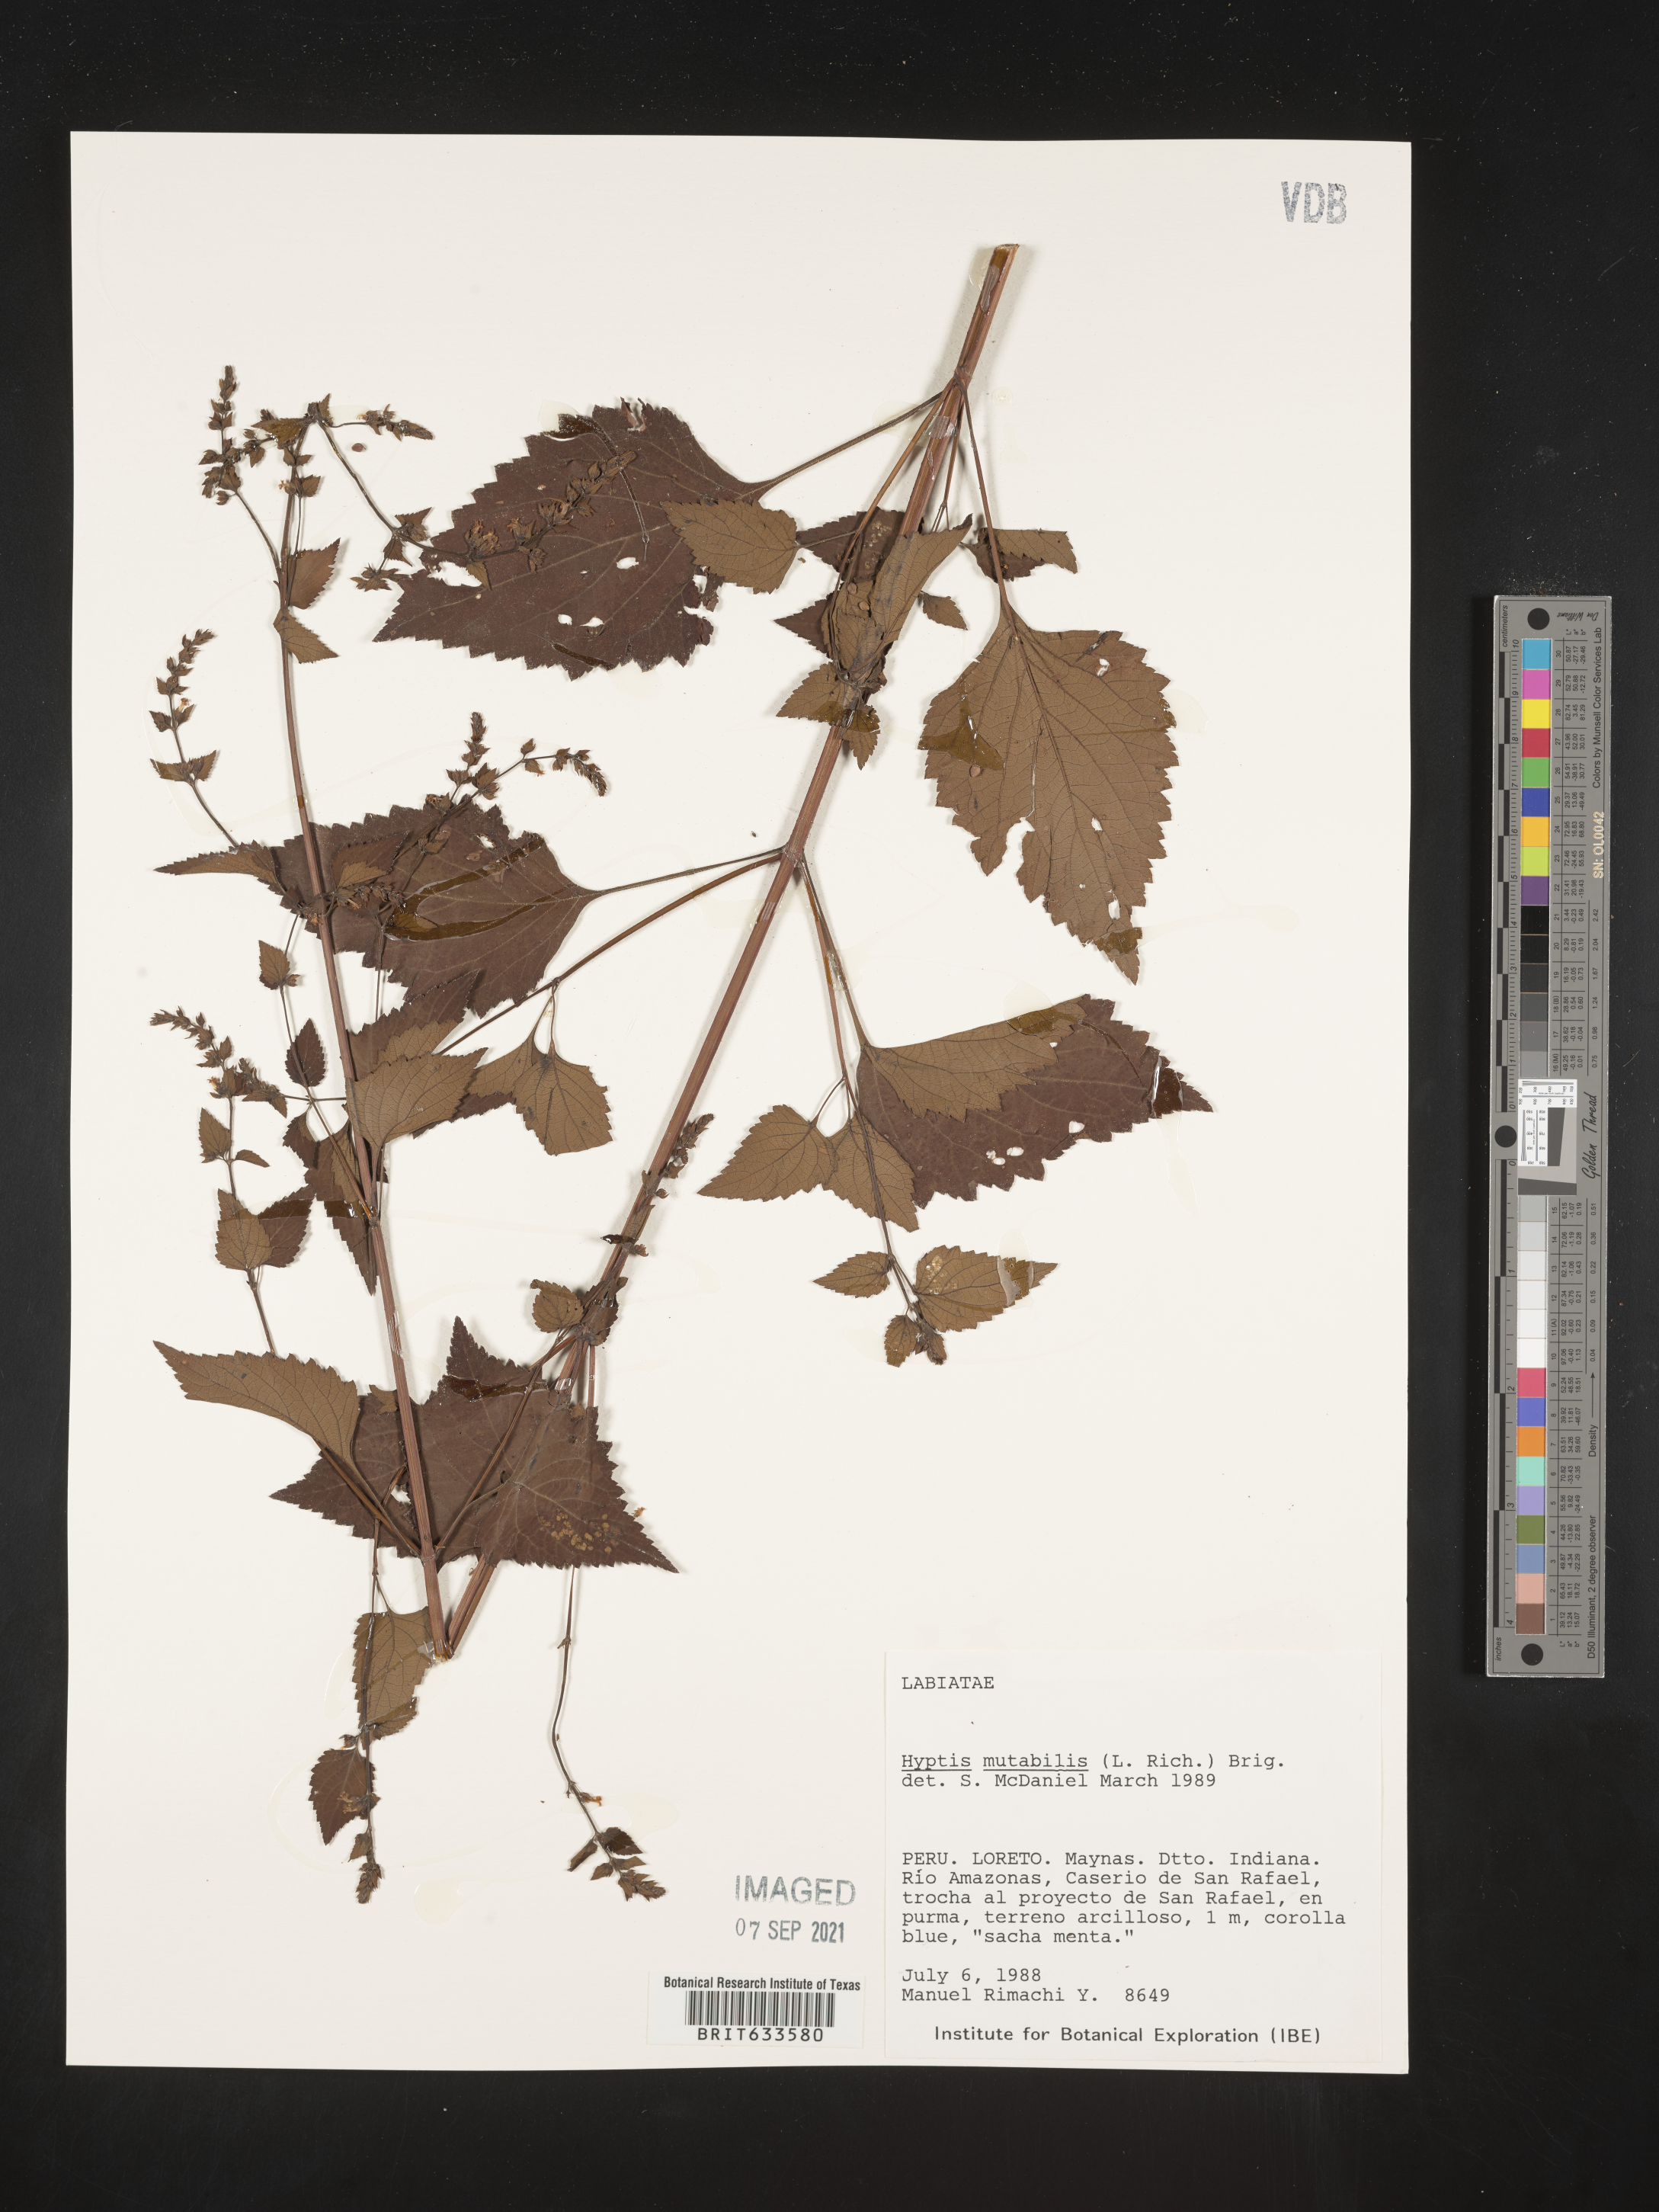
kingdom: Plantae
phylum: Tracheophyta
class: Magnoliopsida
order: Lamiales
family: Lamiaceae
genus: Hyptis
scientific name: Hyptis
